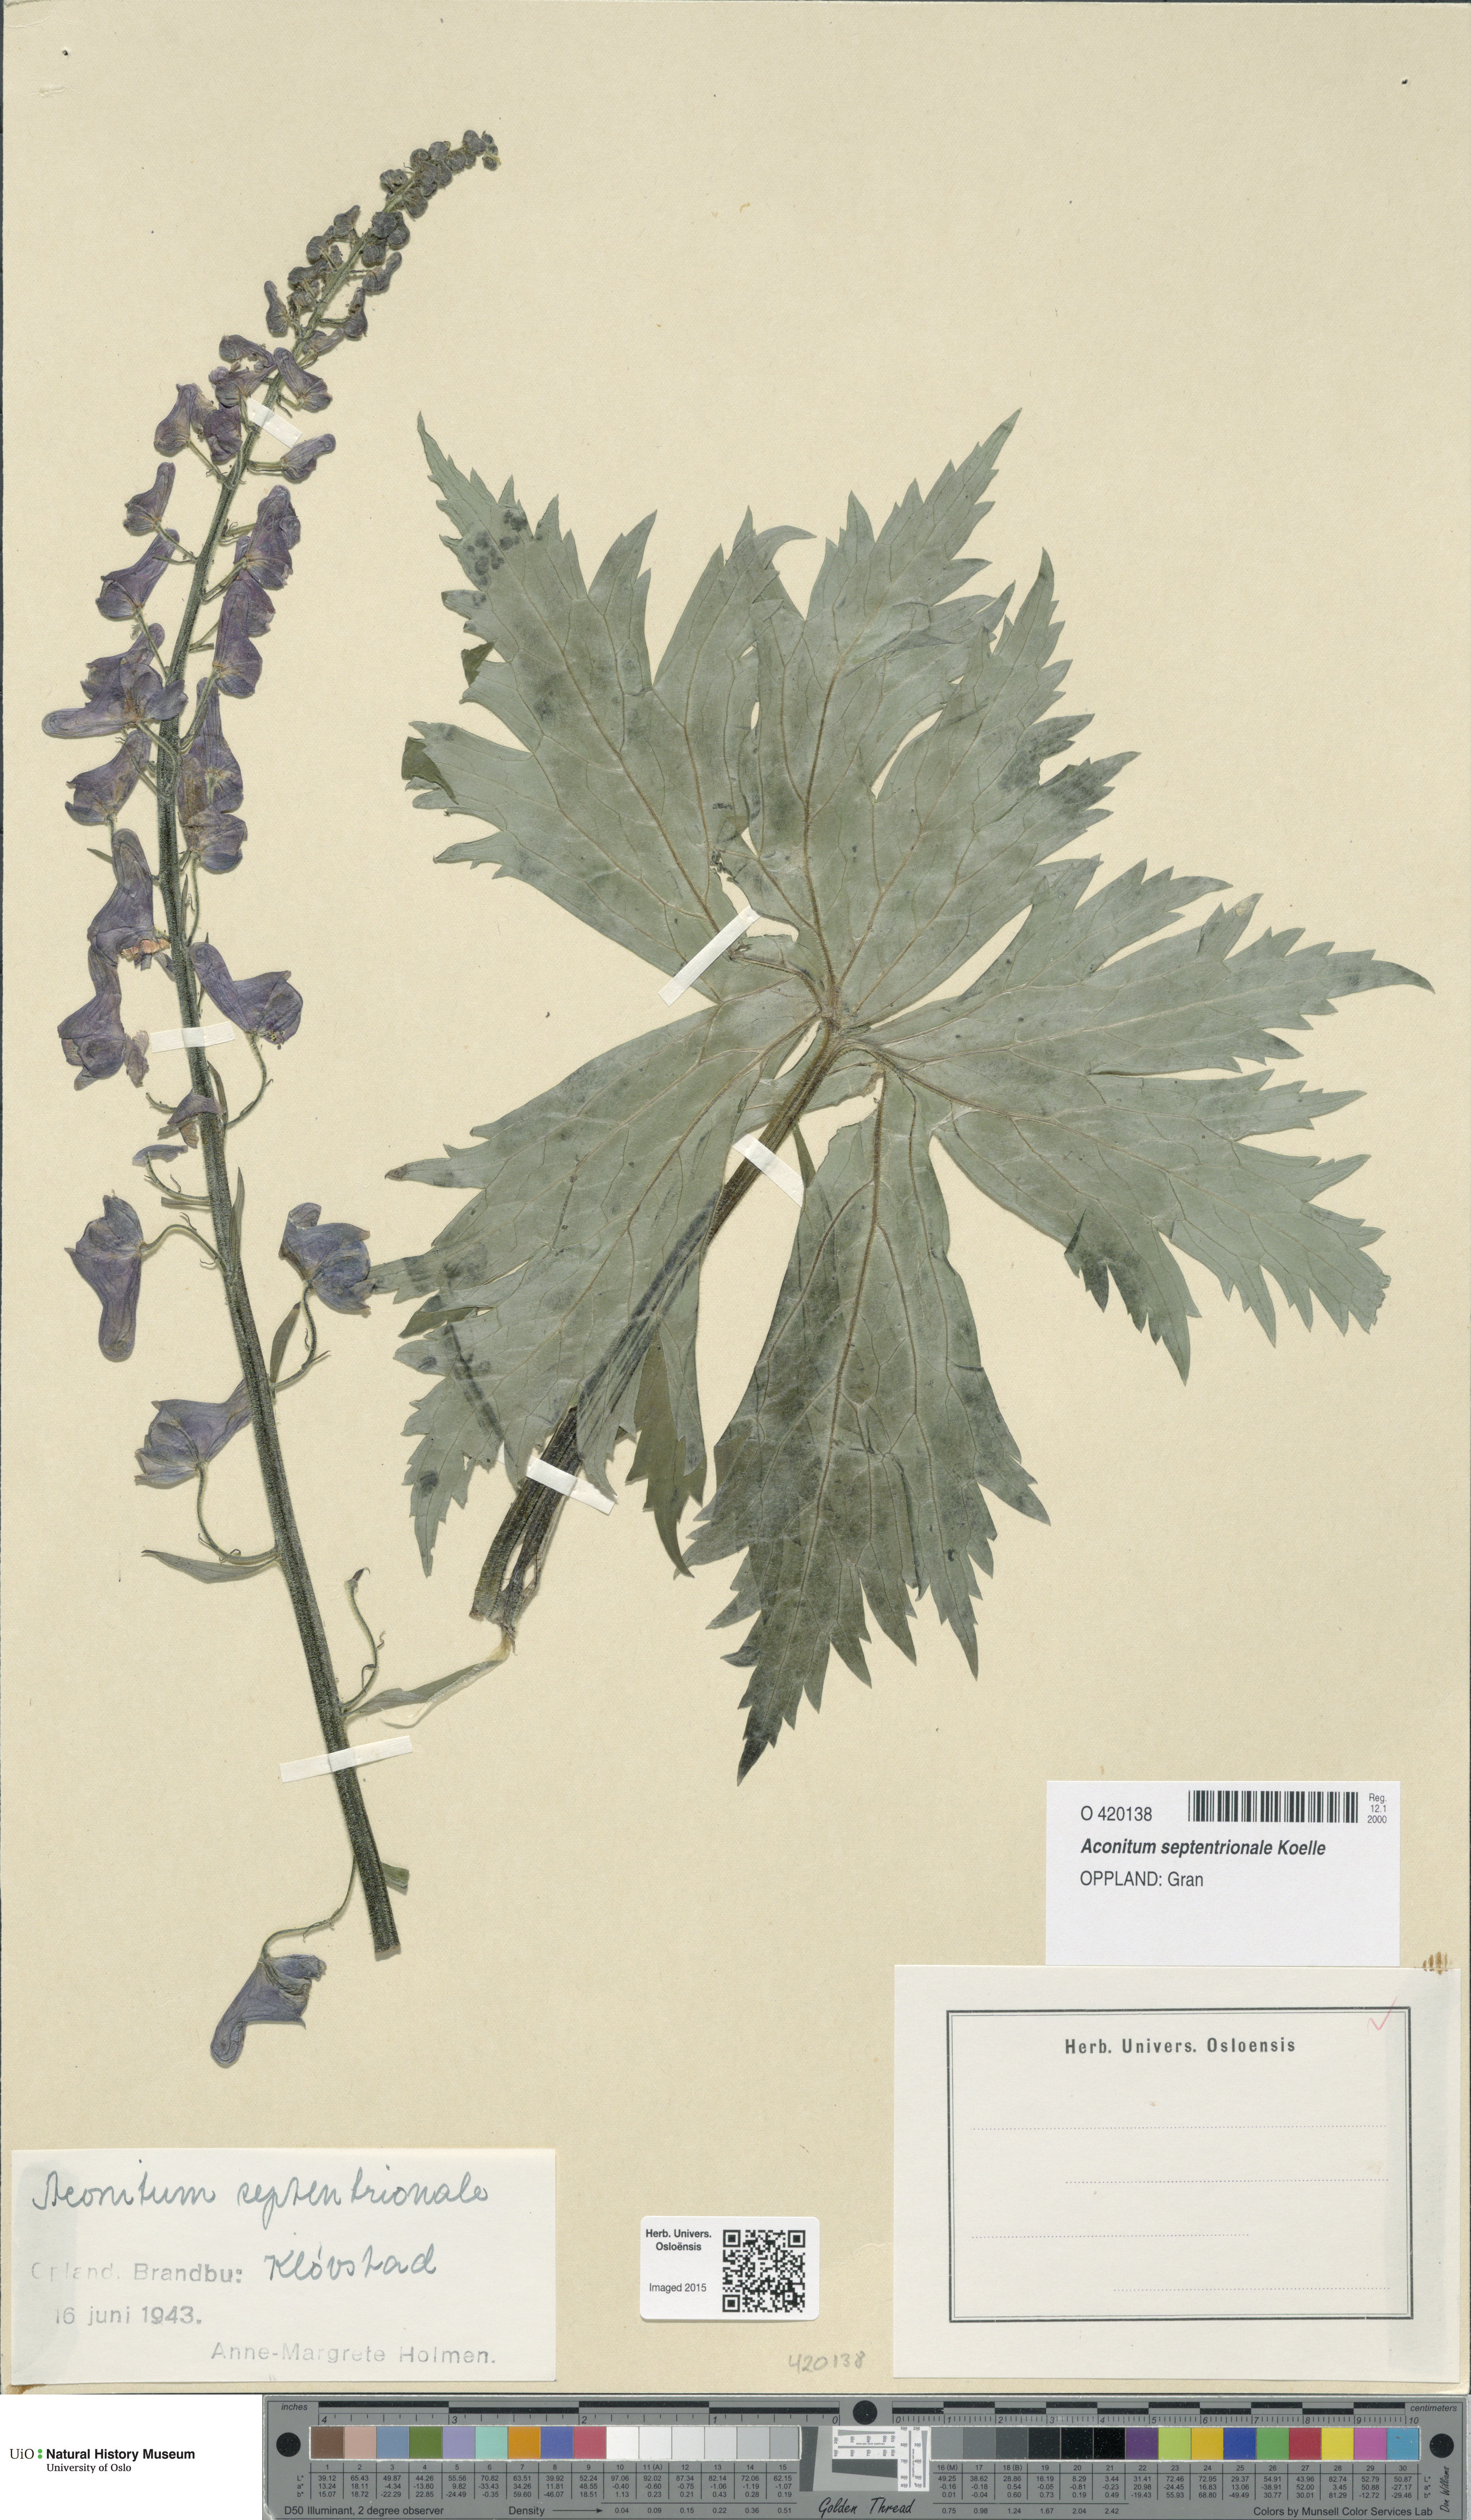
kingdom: Plantae
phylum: Tracheophyta
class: Magnoliopsida
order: Ranunculales
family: Ranunculaceae
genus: Aconitum
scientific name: Aconitum septentrionale
